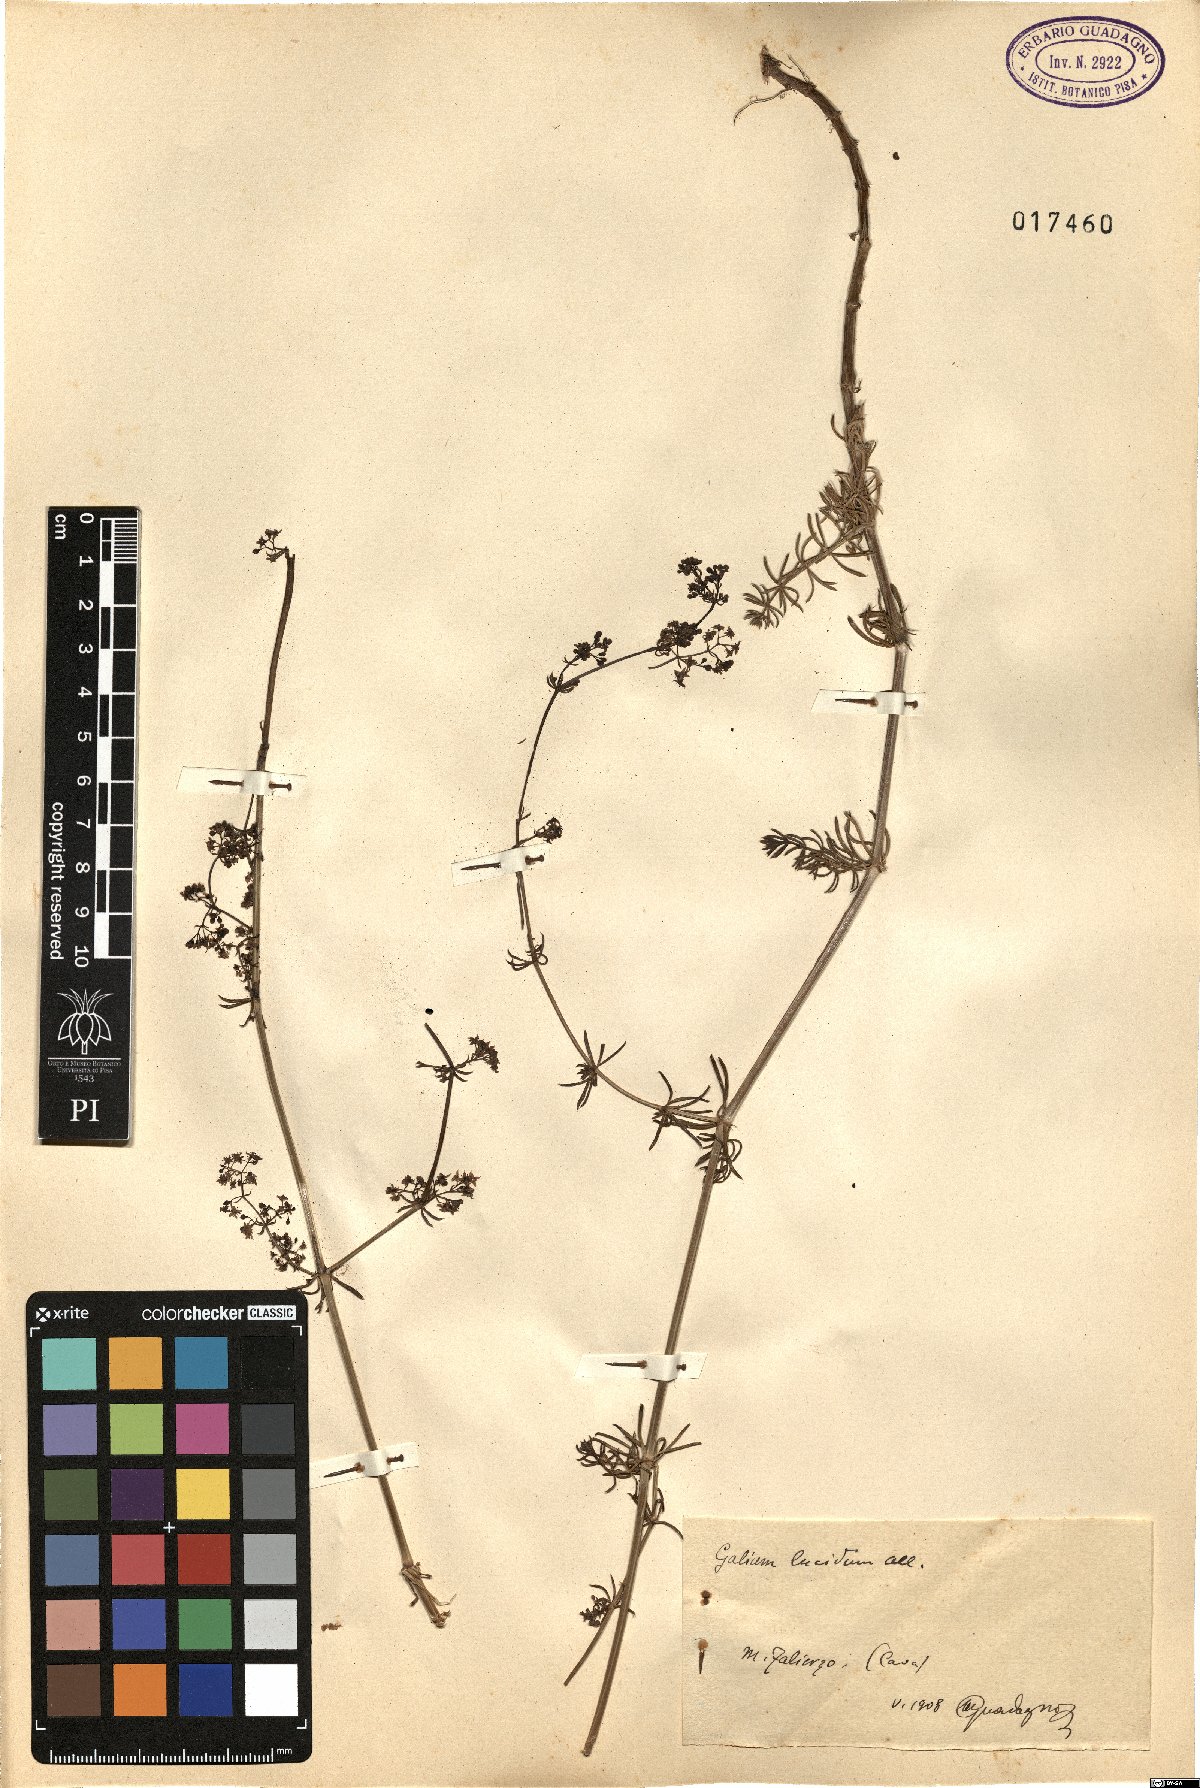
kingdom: Plantae
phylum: Tracheophyta
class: Magnoliopsida
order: Gentianales
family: Rubiaceae
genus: Galium
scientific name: Galium lucidum
